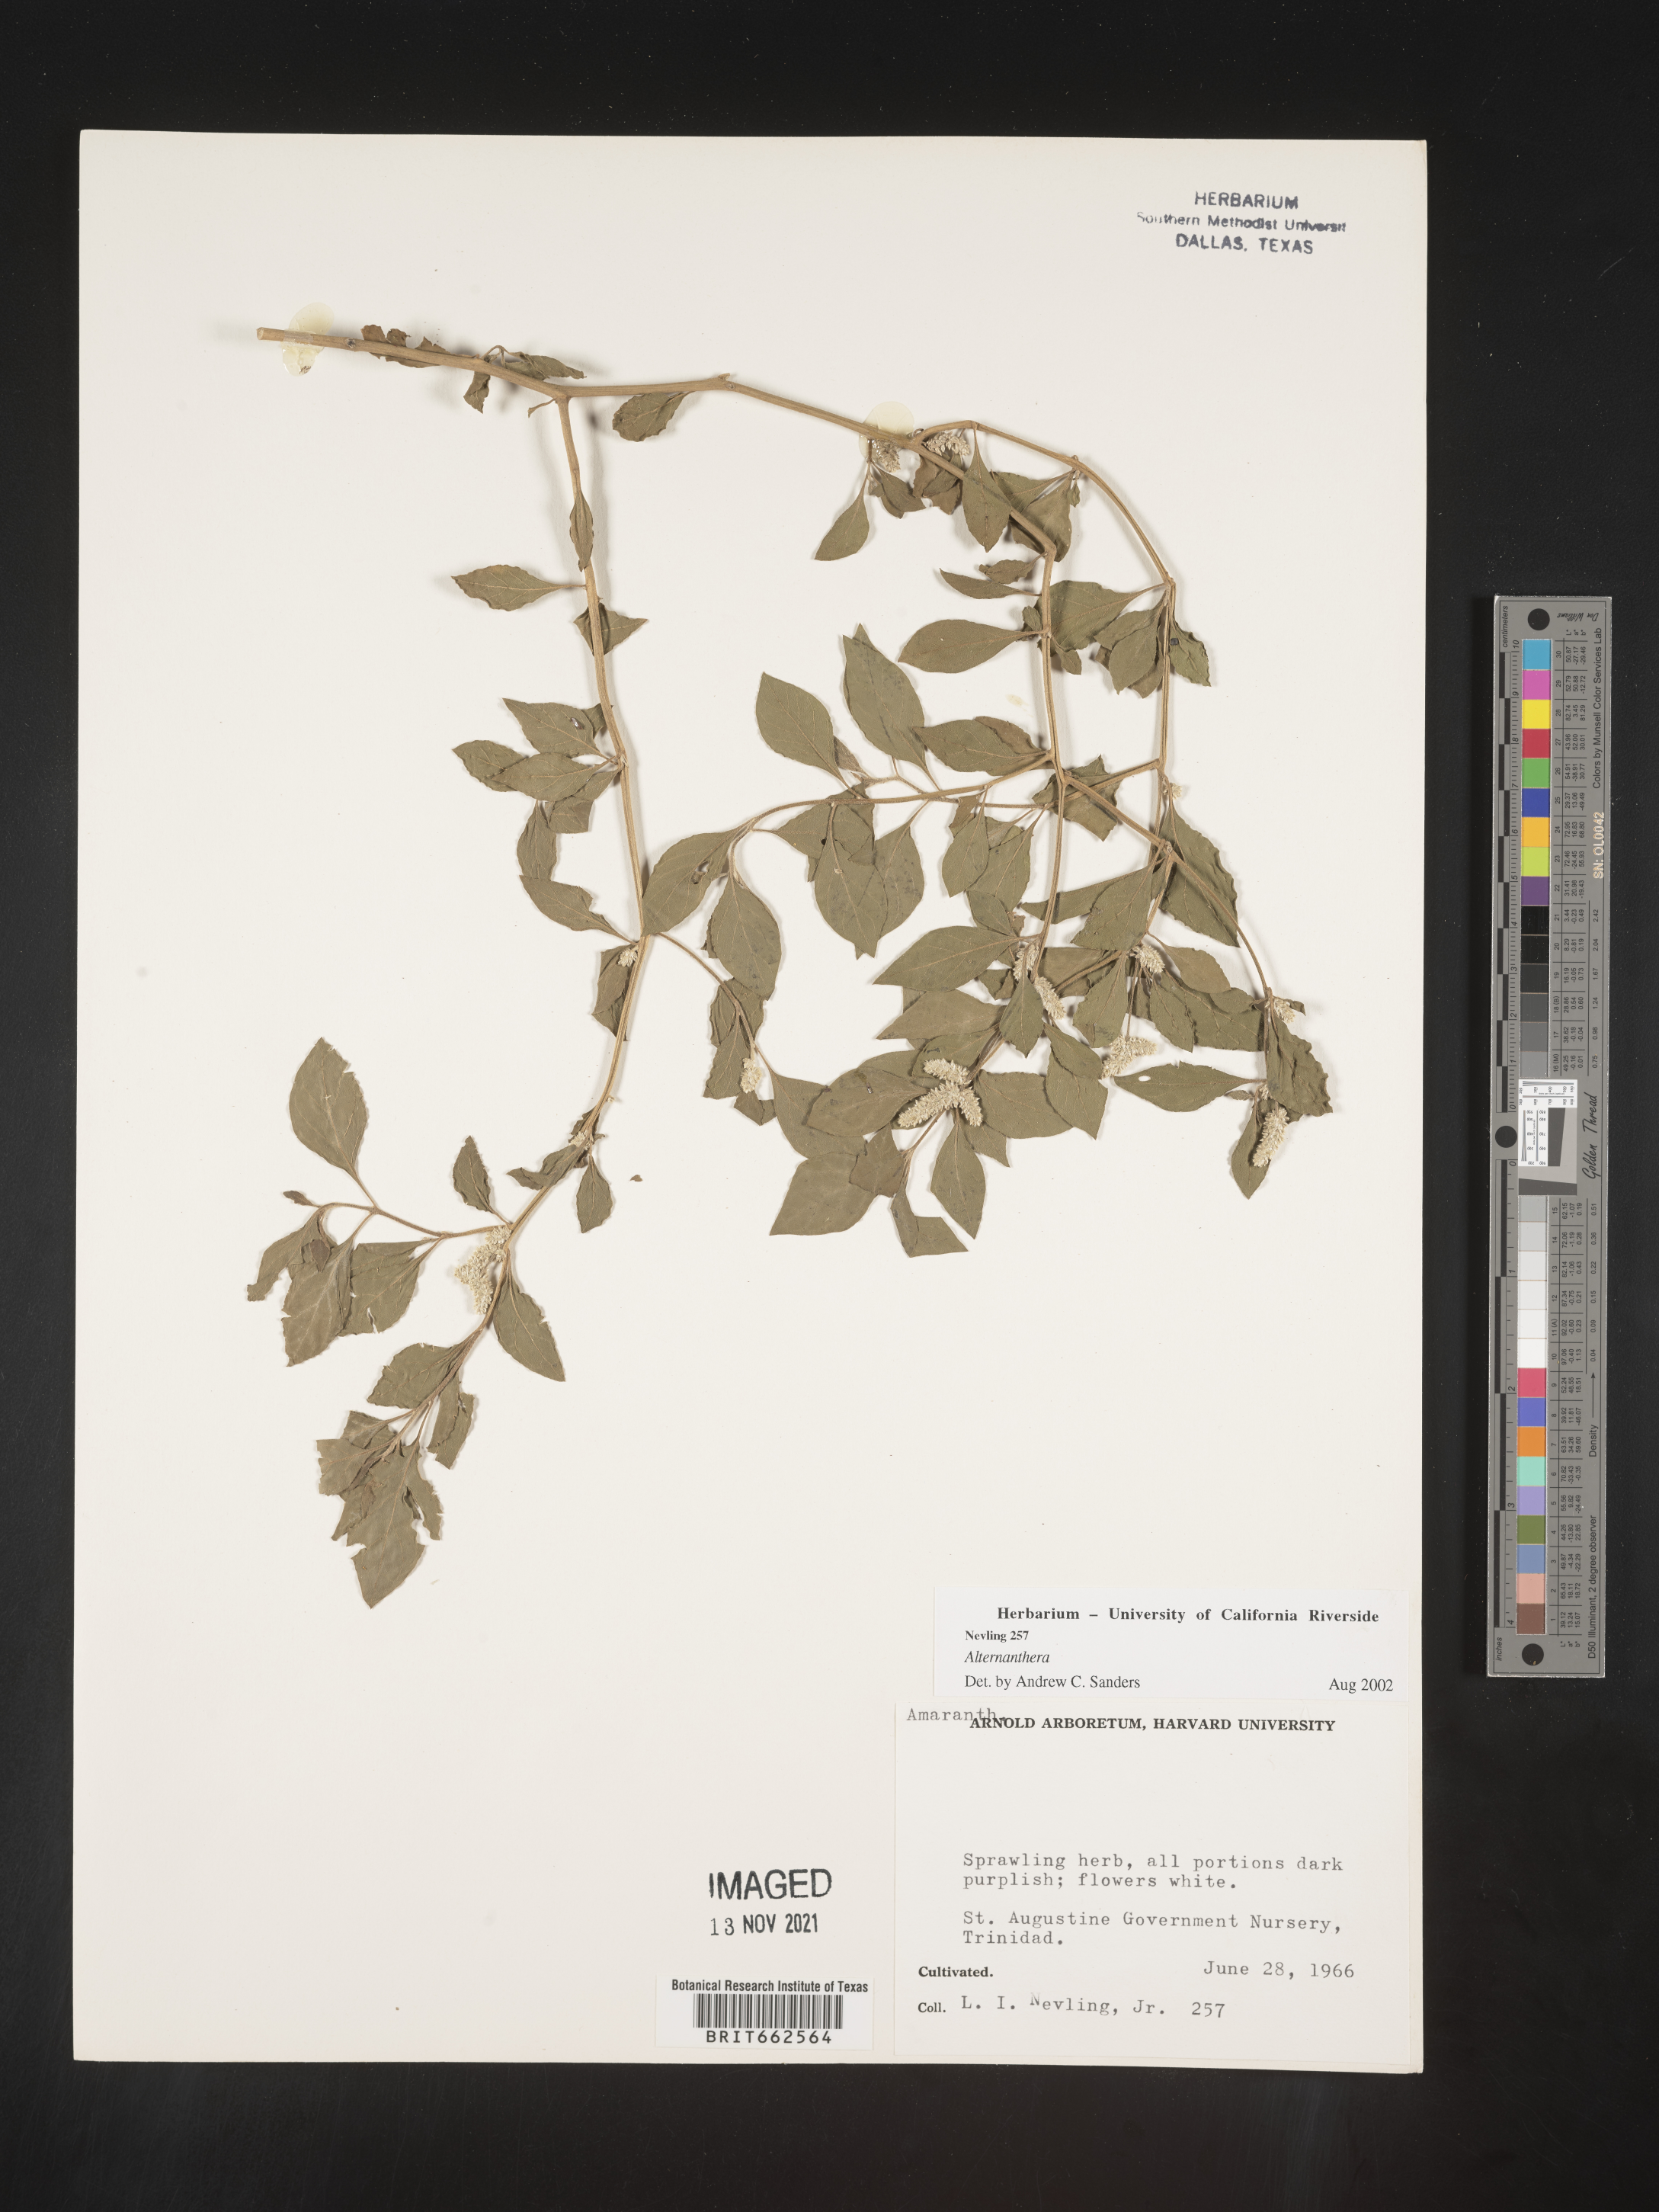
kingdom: Plantae
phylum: Tracheophyta
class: Magnoliopsida
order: Caryophyllales
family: Amaranthaceae
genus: Alternanthera
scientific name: Alternanthera
